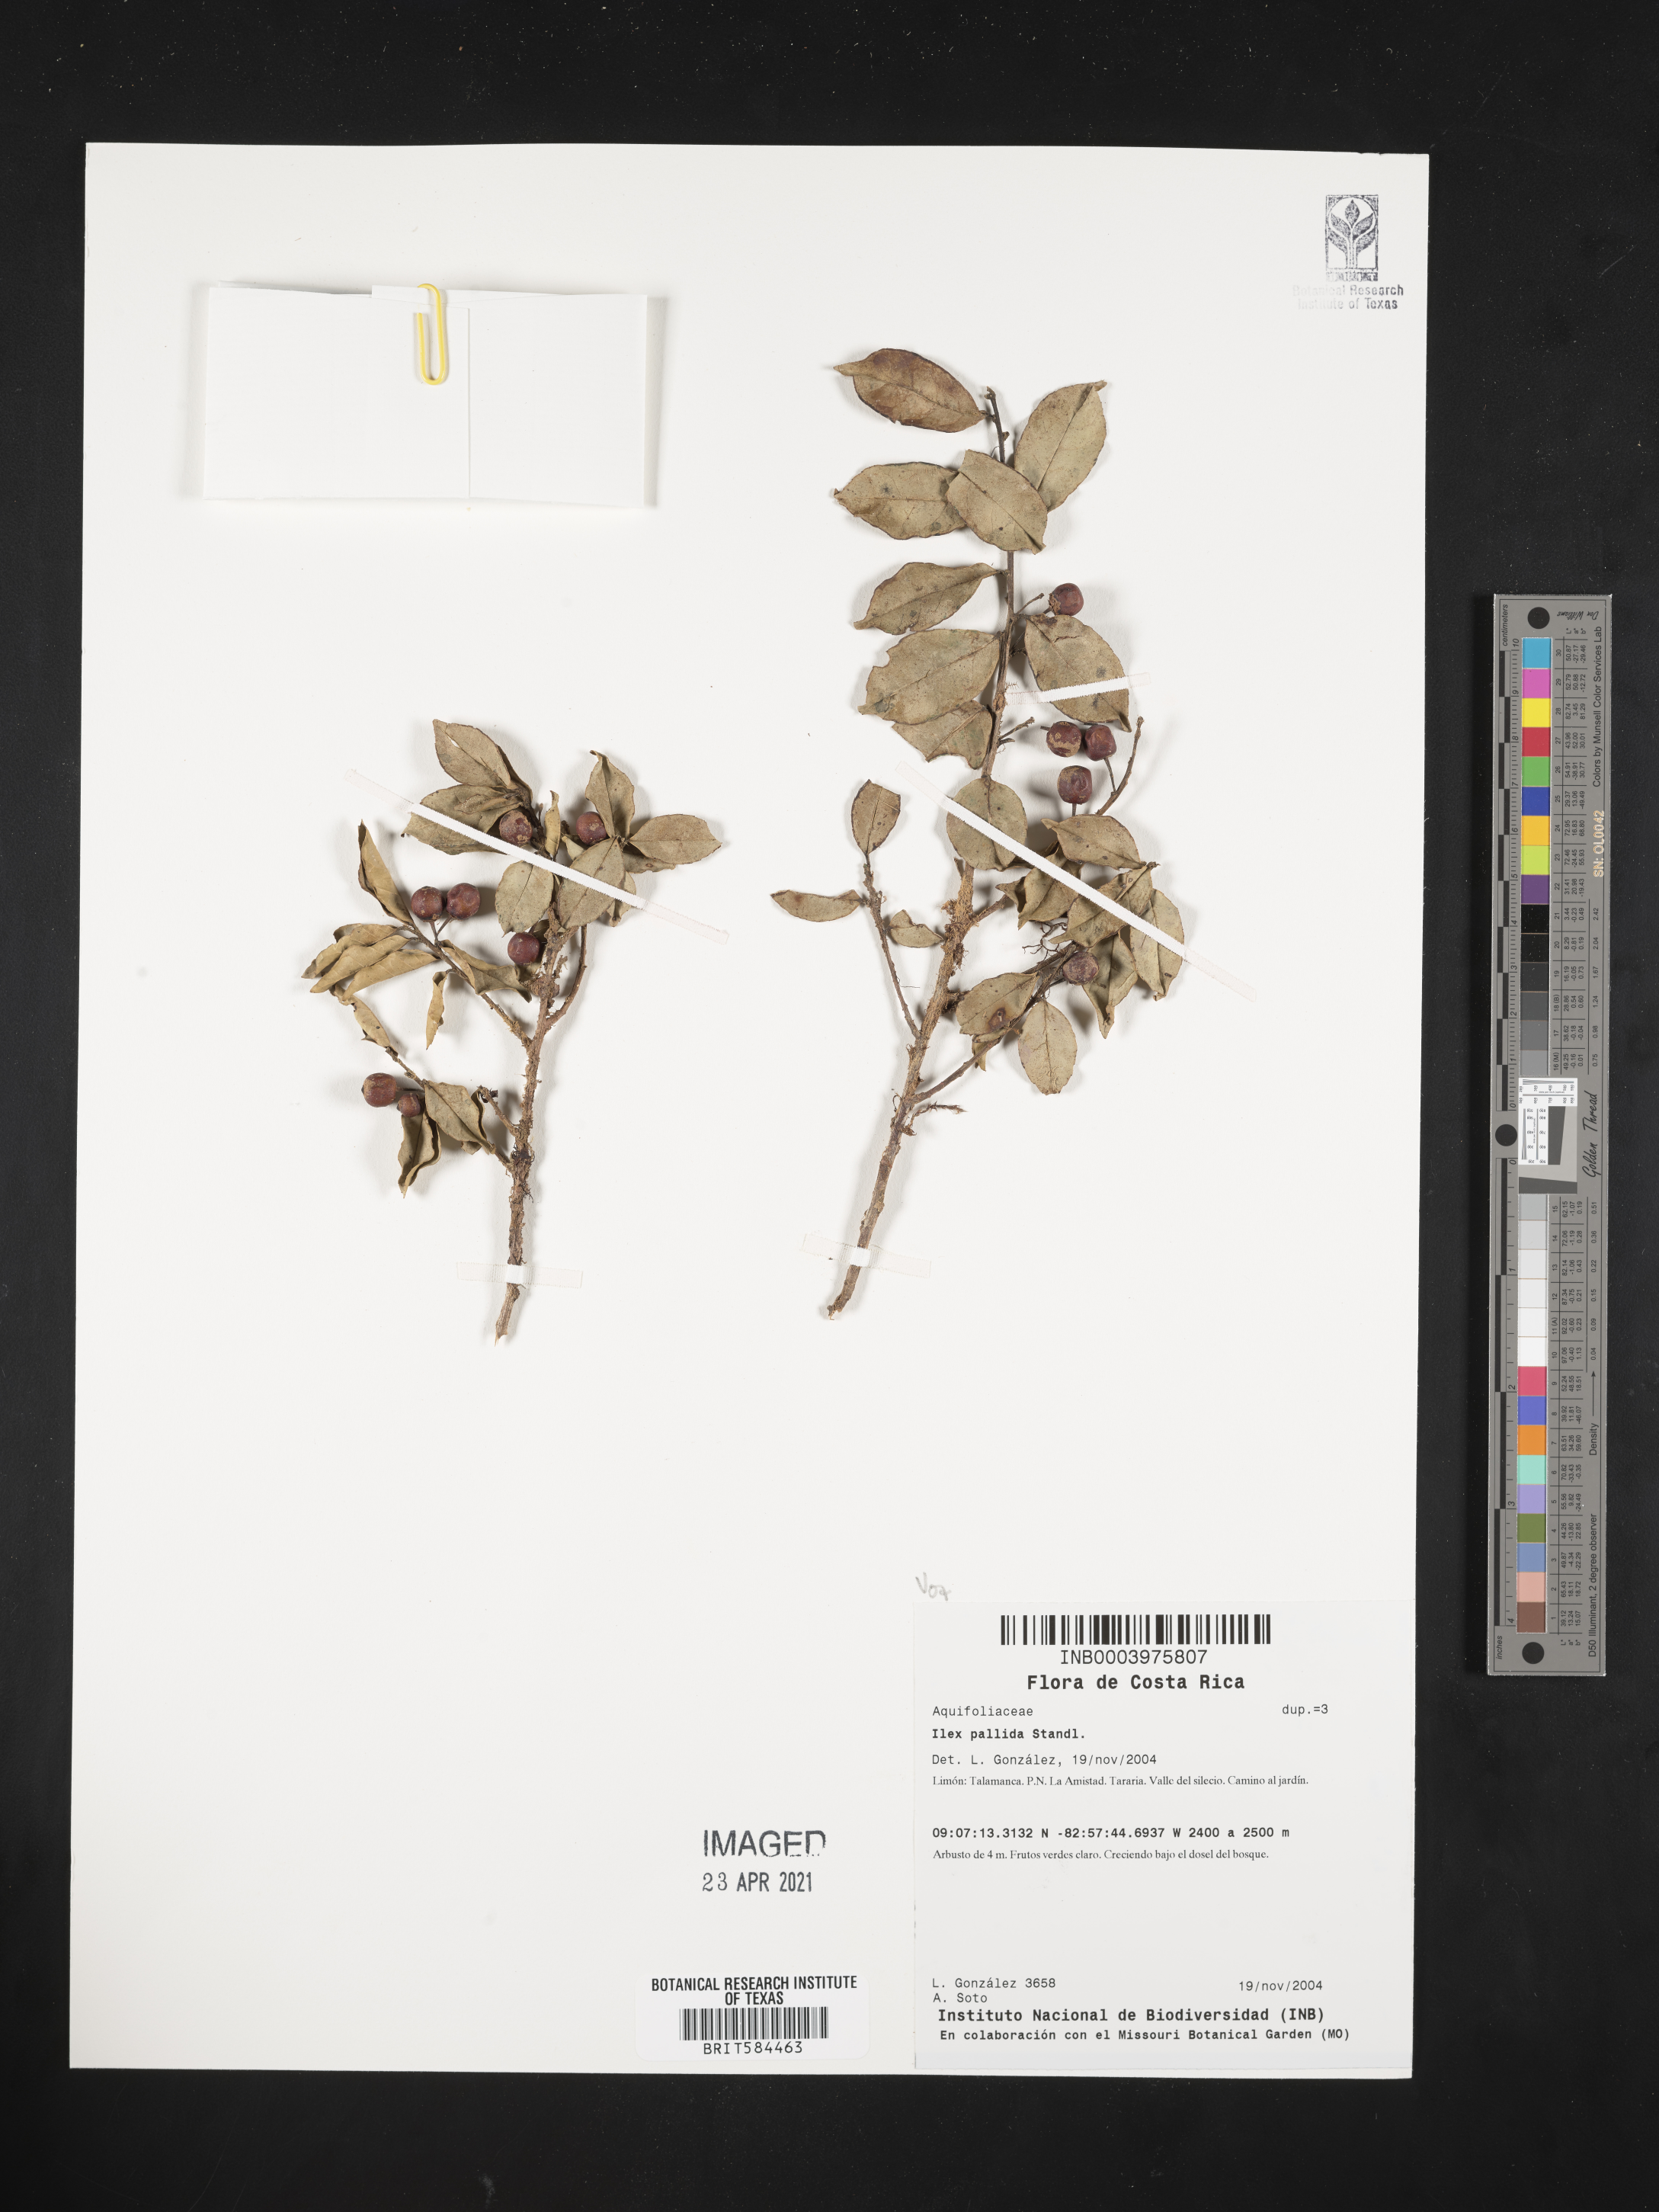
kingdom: Plantae
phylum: Tracheophyta
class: Magnoliopsida
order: Aquifoliales
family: Aquifoliaceae
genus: Ilex
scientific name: Ilex pallida
